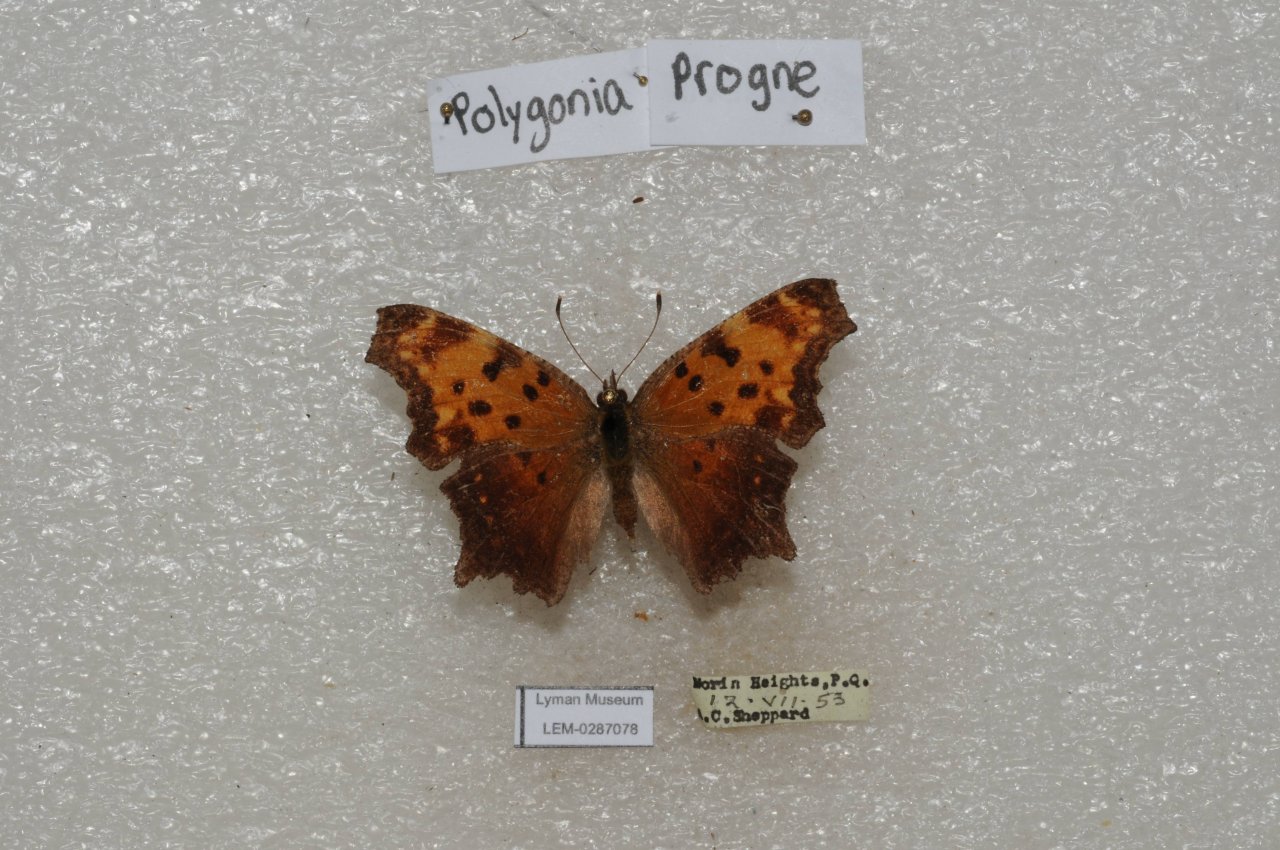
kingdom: Animalia
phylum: Arthropoda
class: Insecta
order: Lepidoptera
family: Nymphalidae
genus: Polygonia
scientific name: Polygonia progne
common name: Gray Comma
